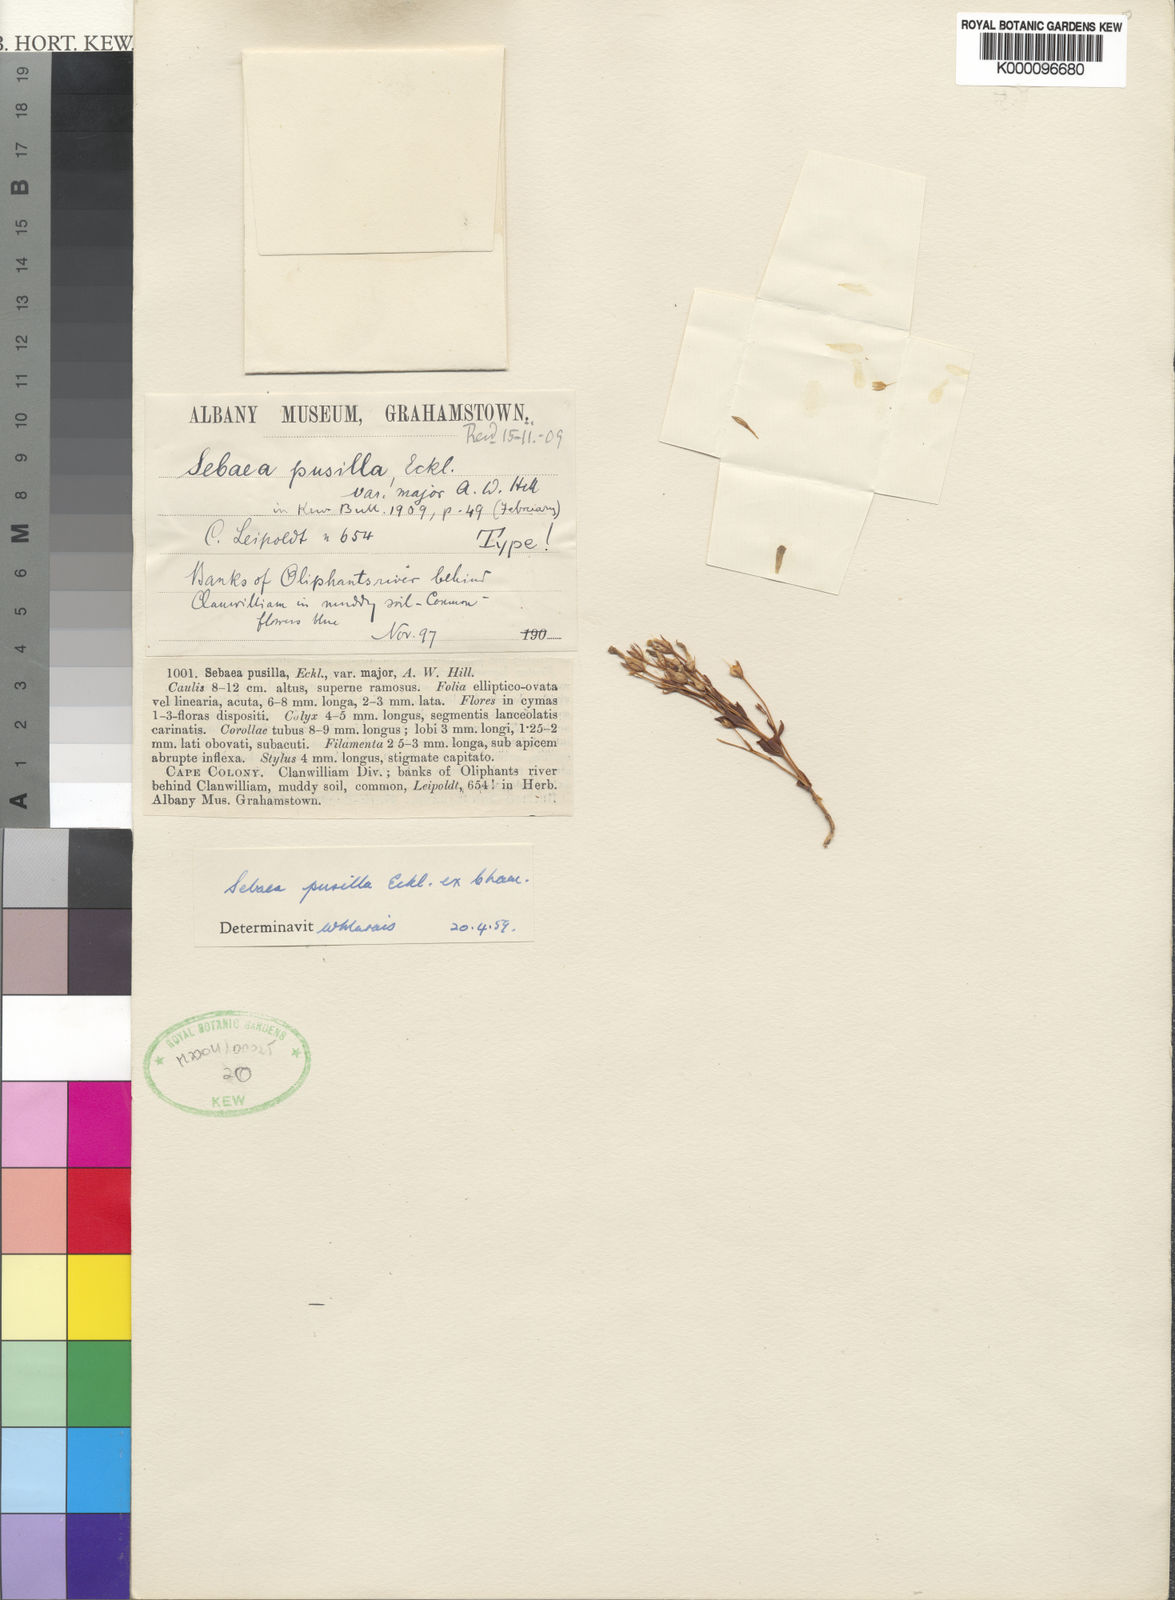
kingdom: Plantae
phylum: Tracheophyta
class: Magnoliopsida
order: Gentianales
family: Gentianaceae
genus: Lagenias
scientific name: Lagenias
